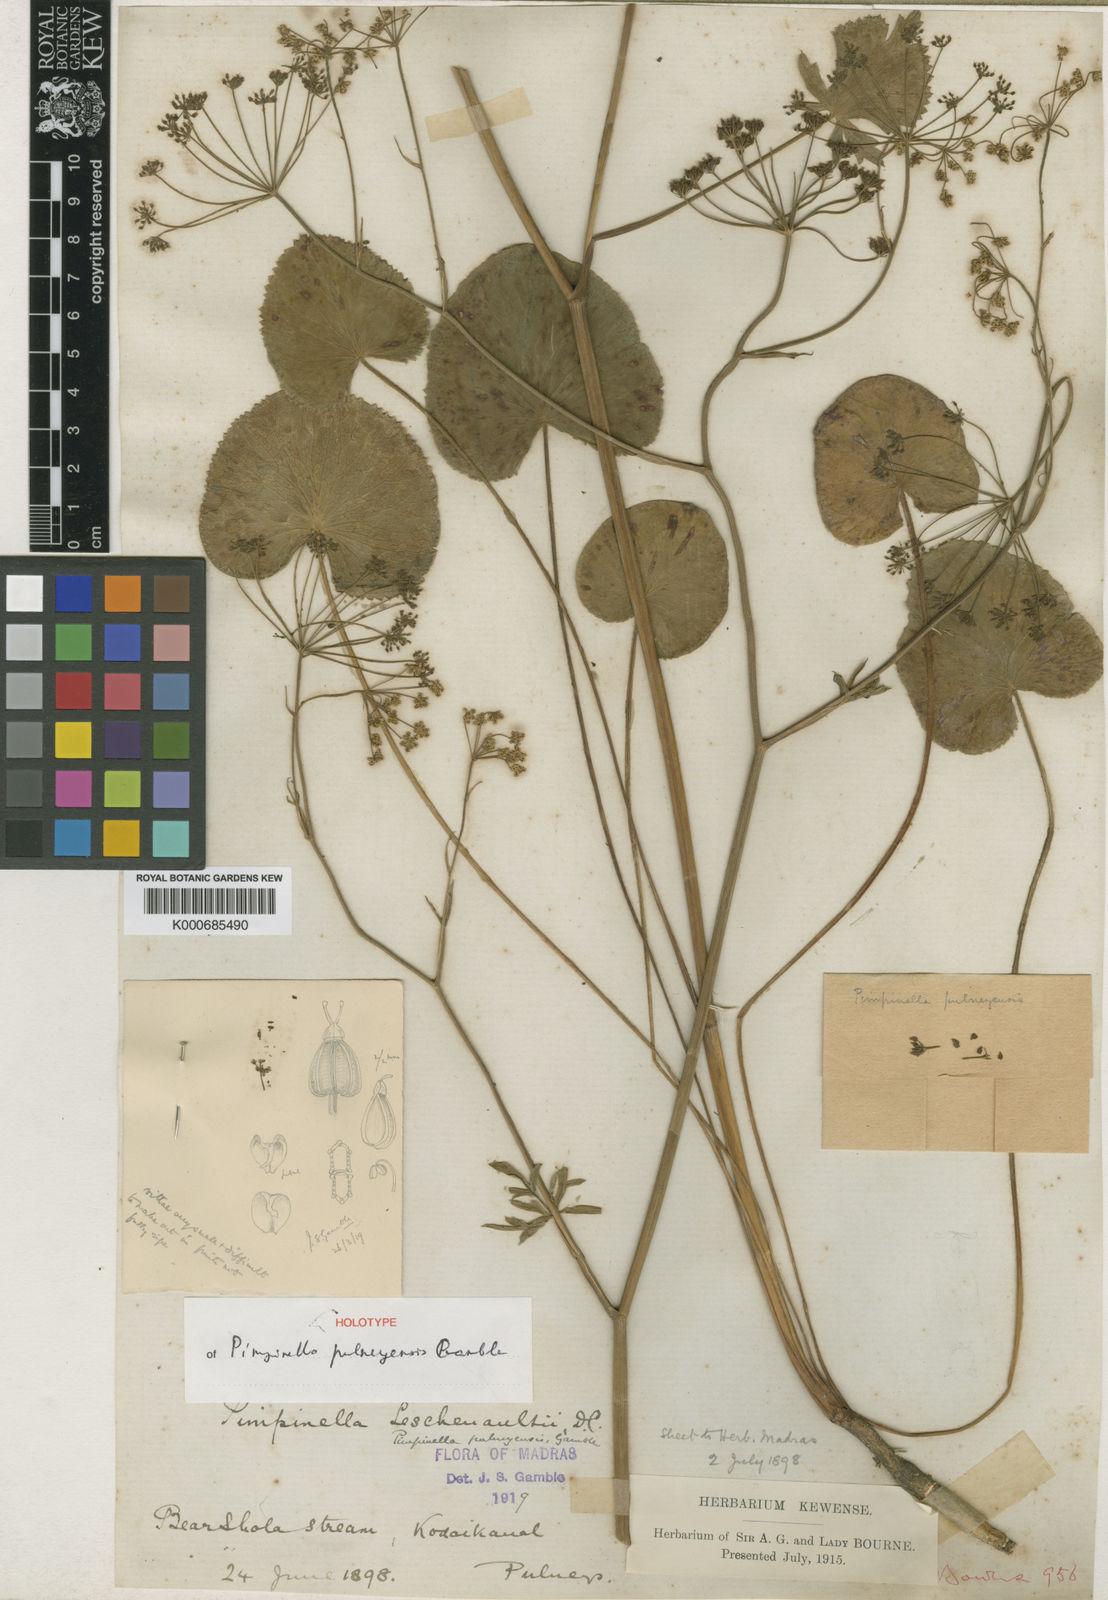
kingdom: Plantae
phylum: Tracheophyta
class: Magnoliopsida
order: Apiales
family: Apiaceae
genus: Pimpinella
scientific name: Pimpinella leschenaultii
